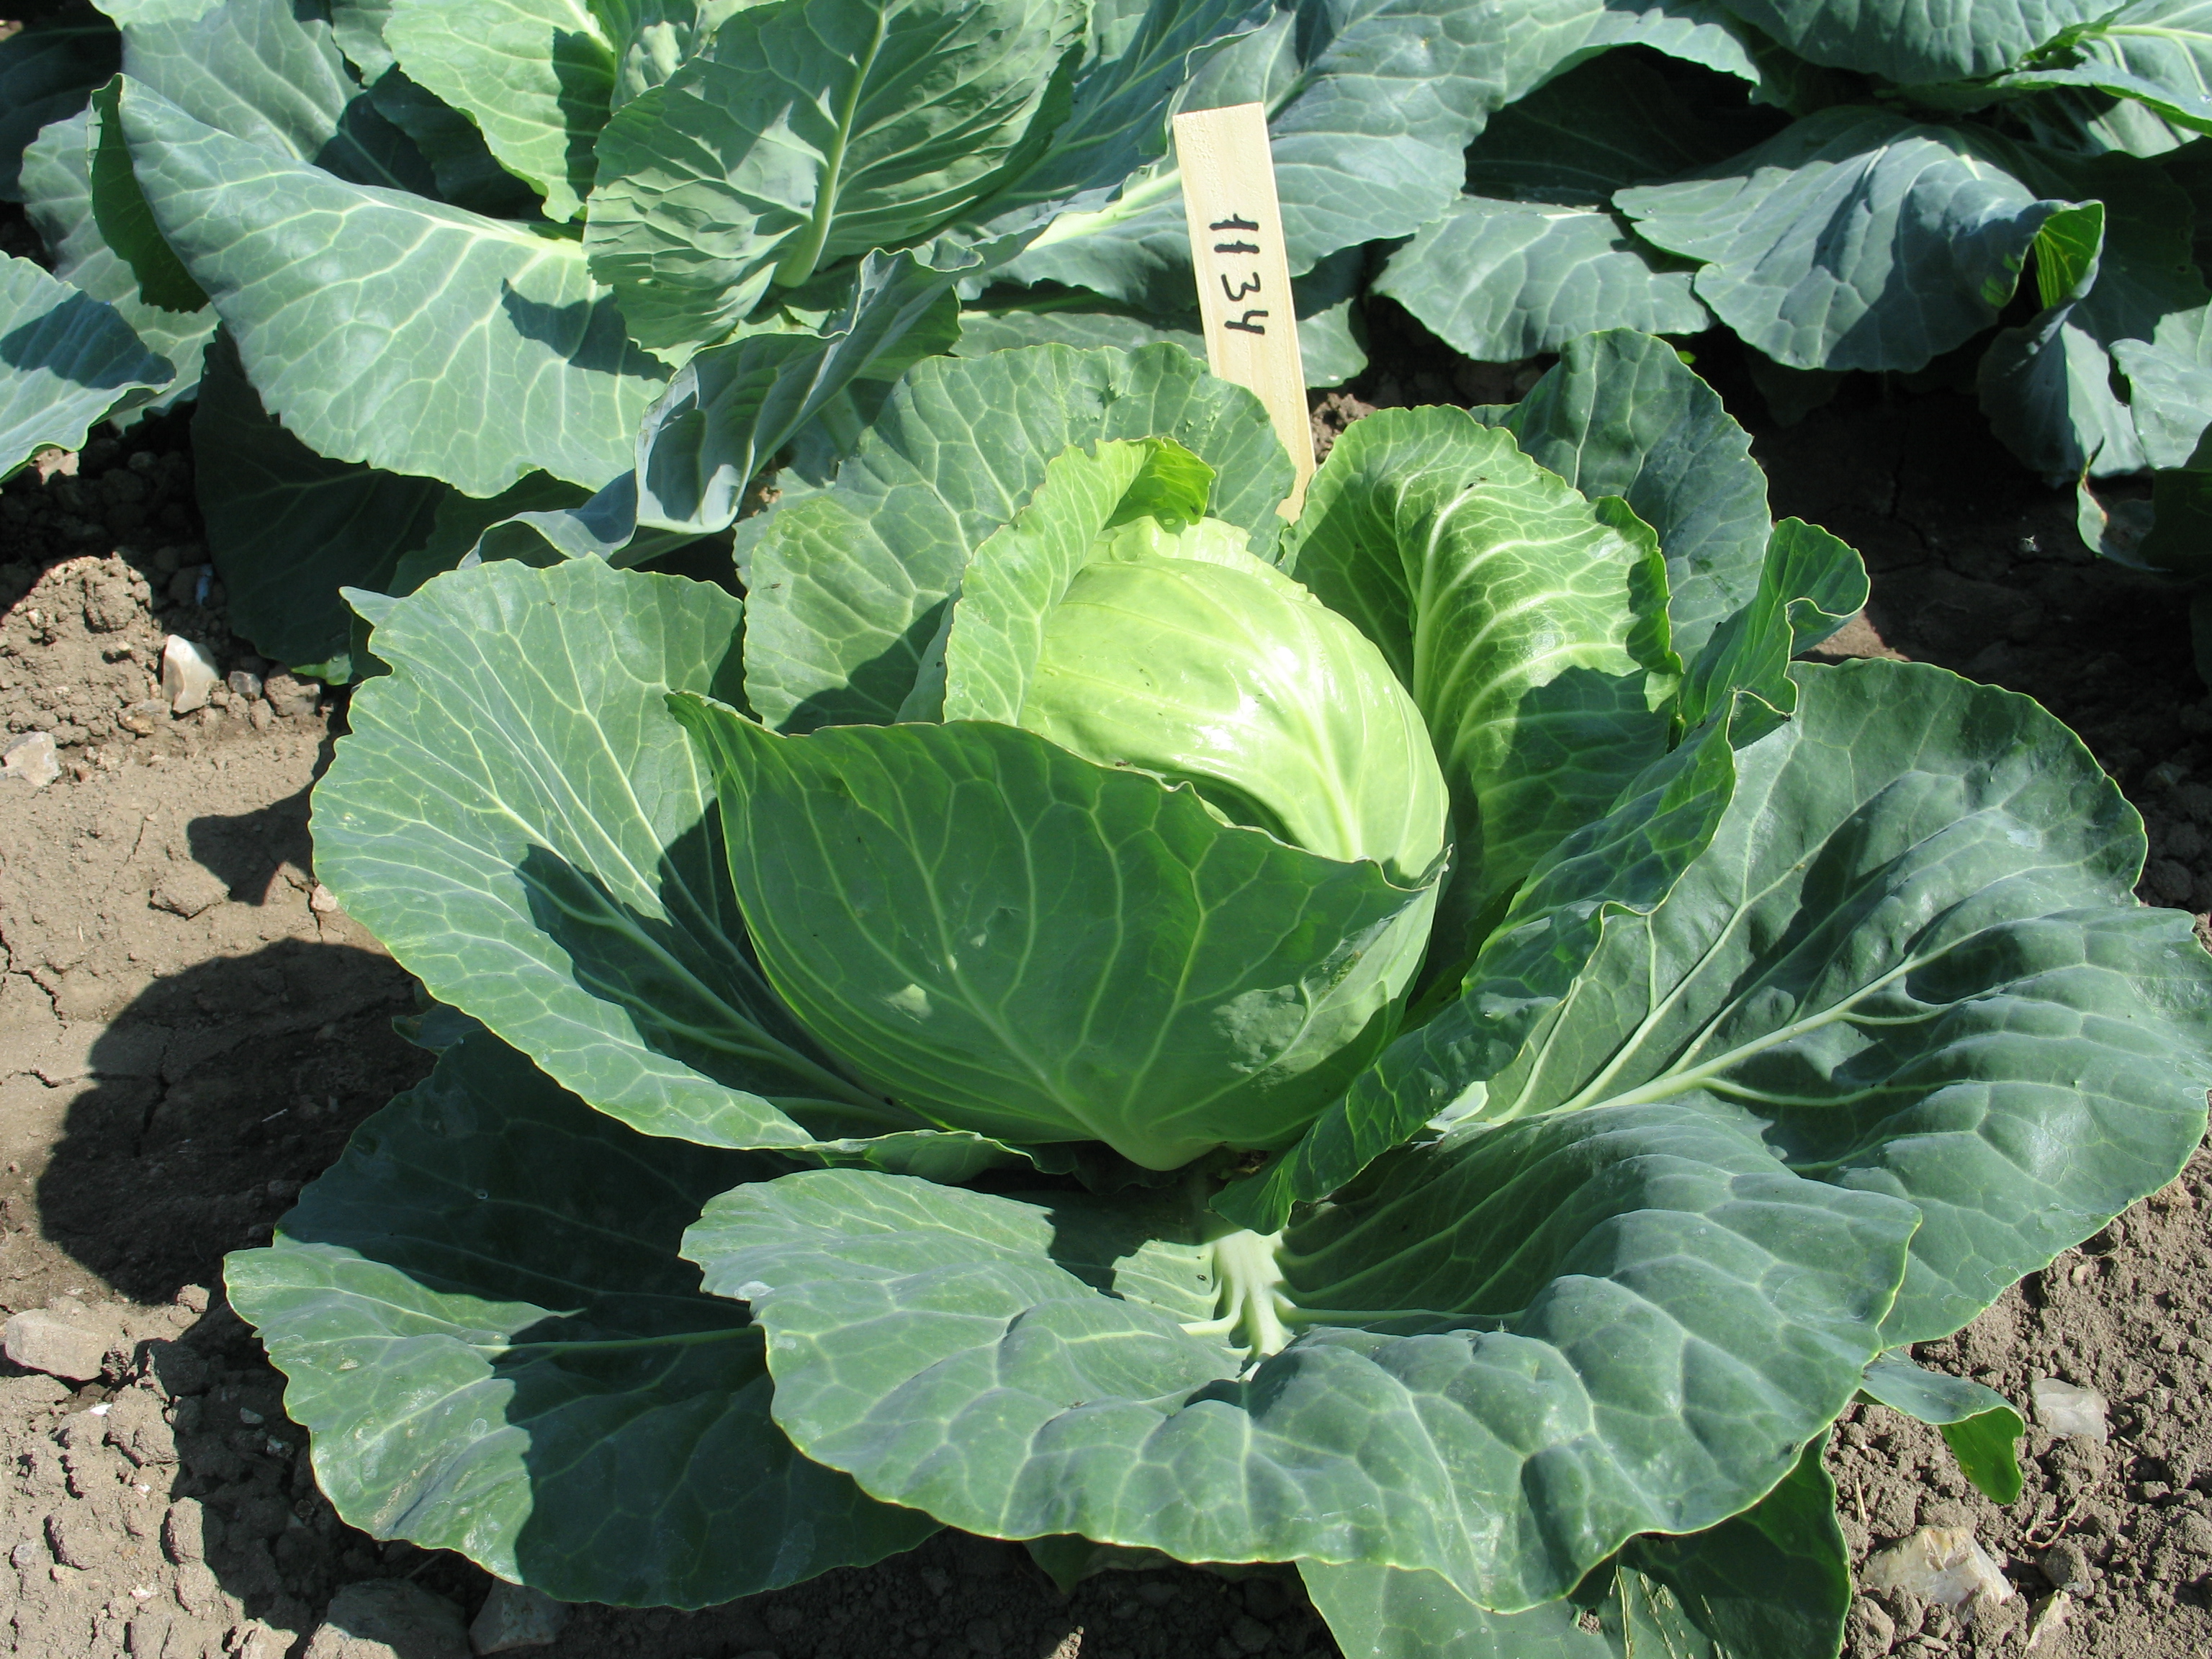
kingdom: Plantae
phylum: Tracheophyta
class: Magnoliopsida
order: Brassicales
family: Brassicaceae
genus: Brassica
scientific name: Brassica oleracea
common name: Cabbage
